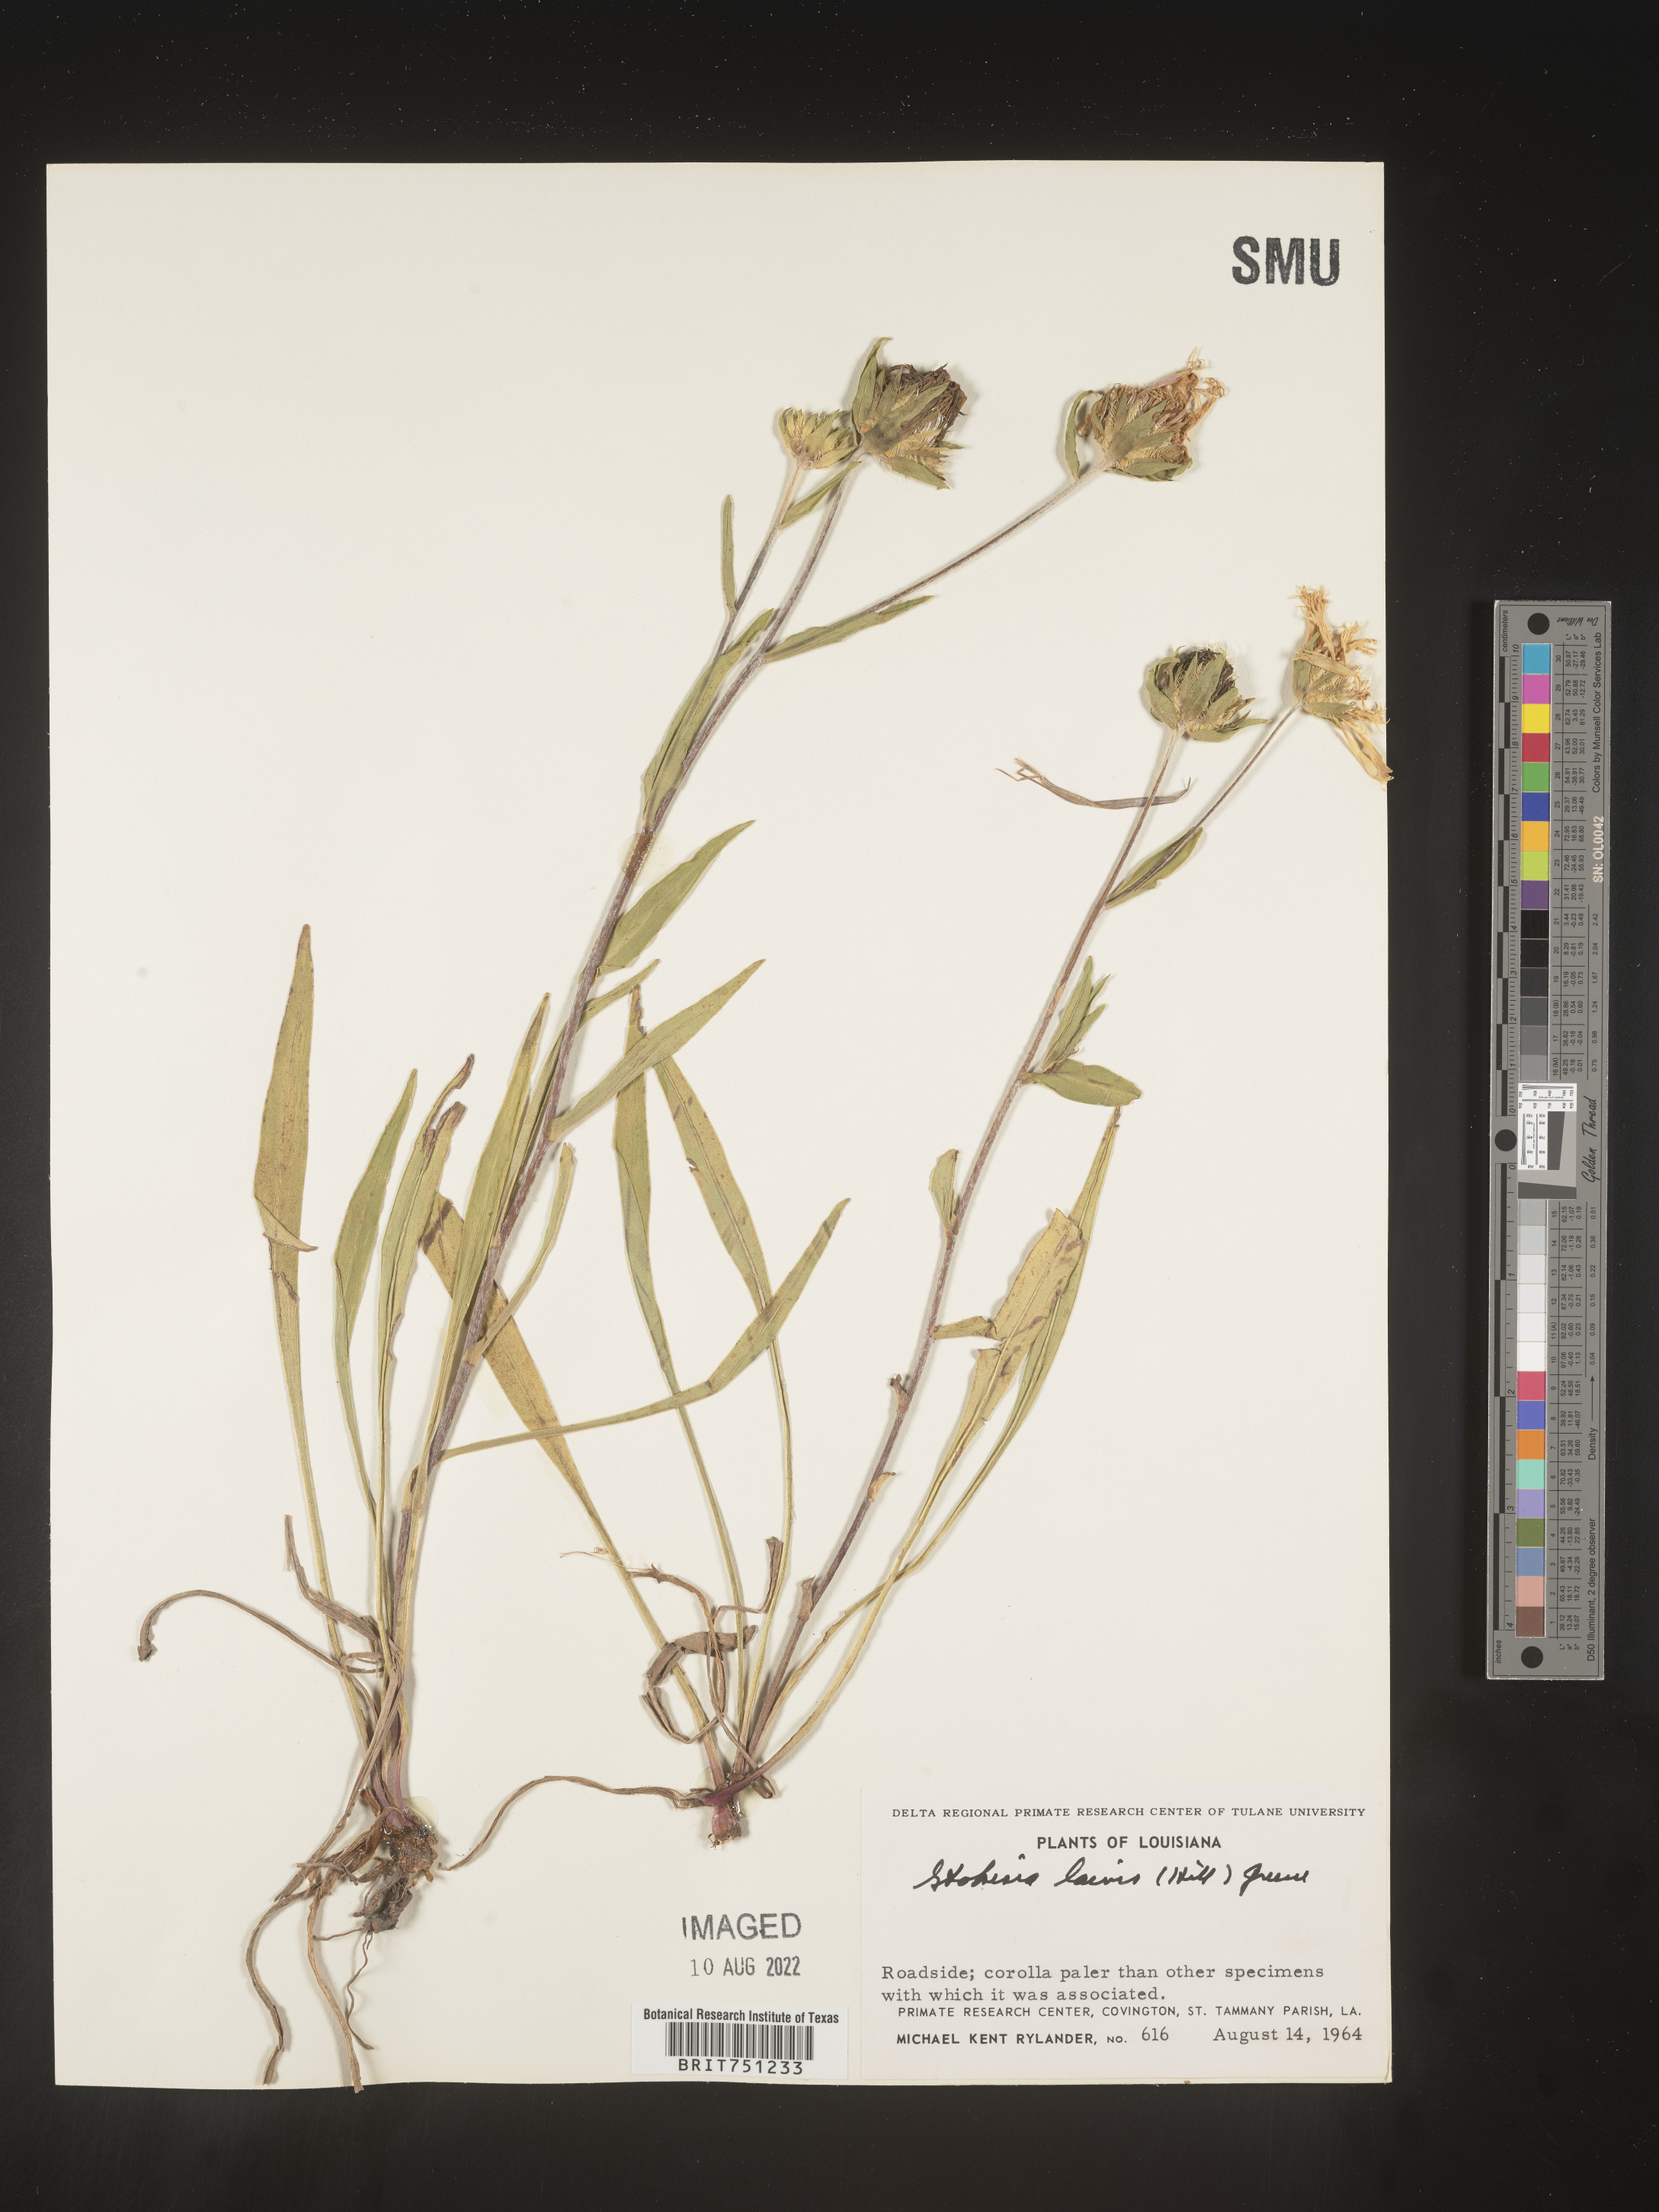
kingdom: Plantae
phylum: Tracheophyta
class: Magnoliopsida
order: Asterales
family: Asteraceae
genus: Stokesia
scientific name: Stokesia
